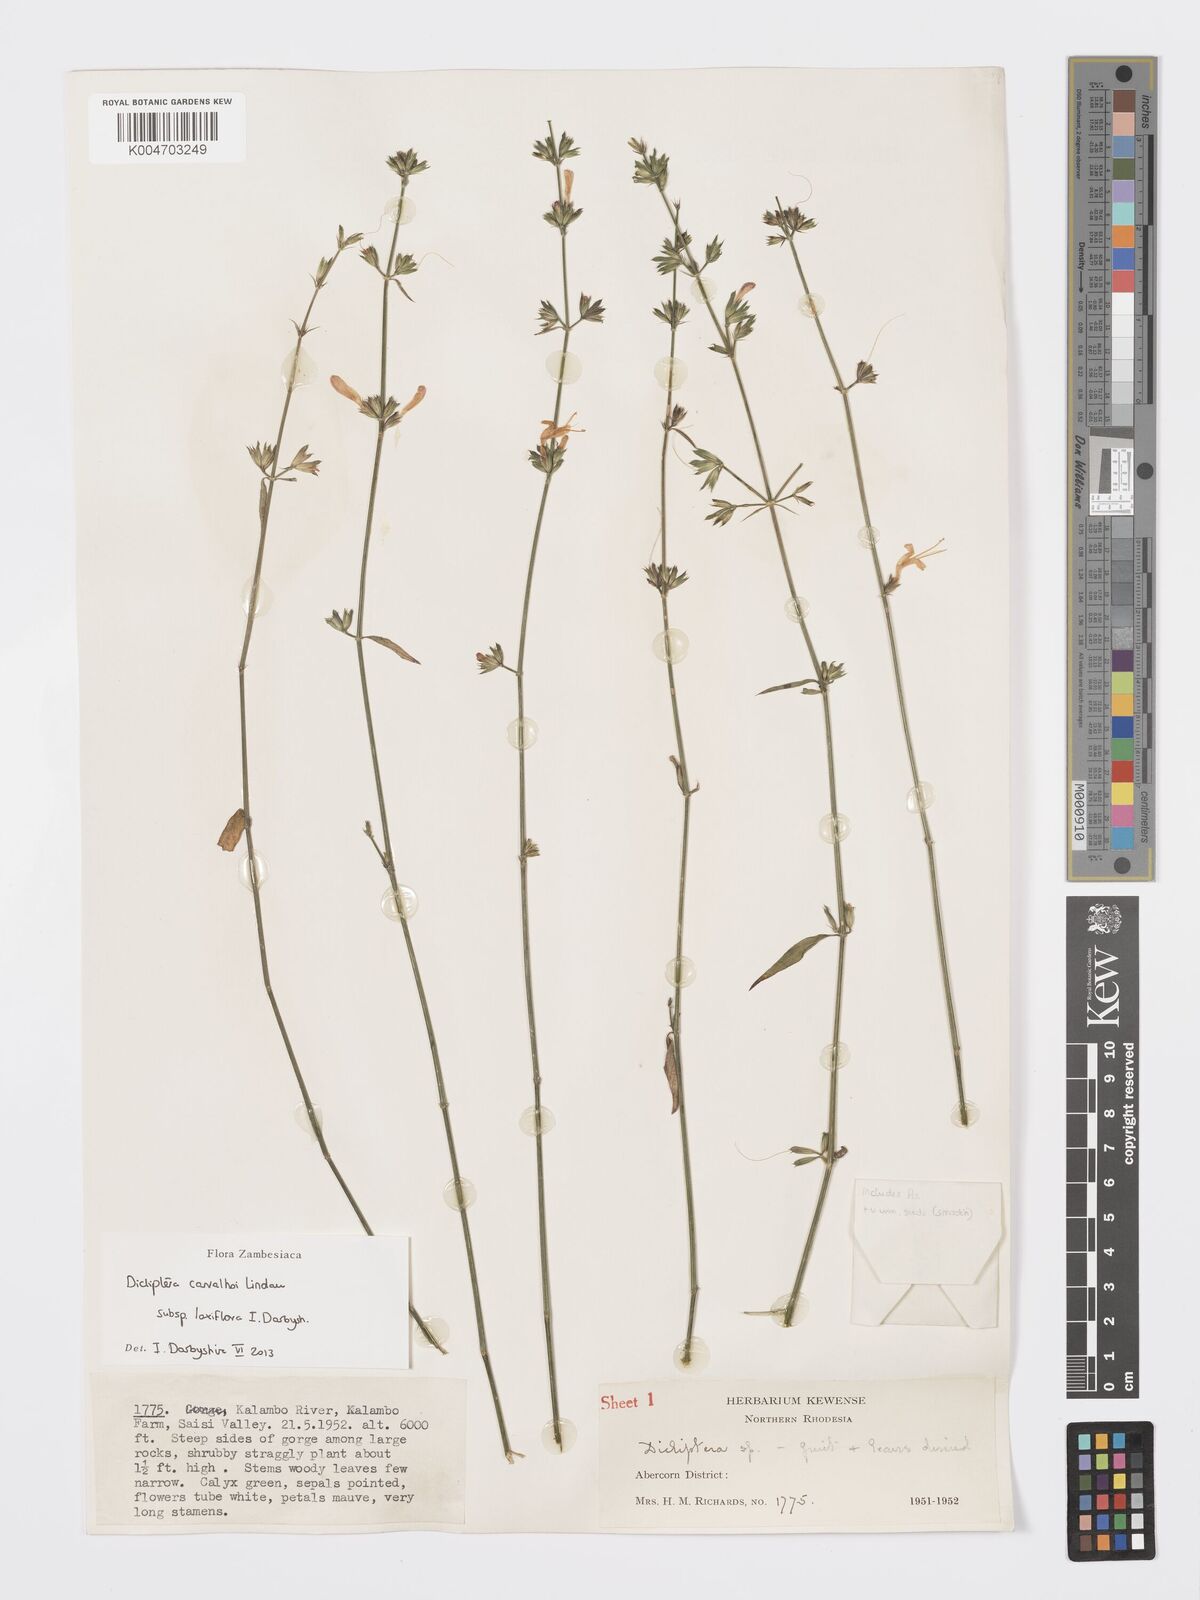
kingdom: Plantae
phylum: Tracheophyta
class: Magnoliopsida
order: Lamiales
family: Acanthaceae
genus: Dicliptera
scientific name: Dicliptera carvalhoi
